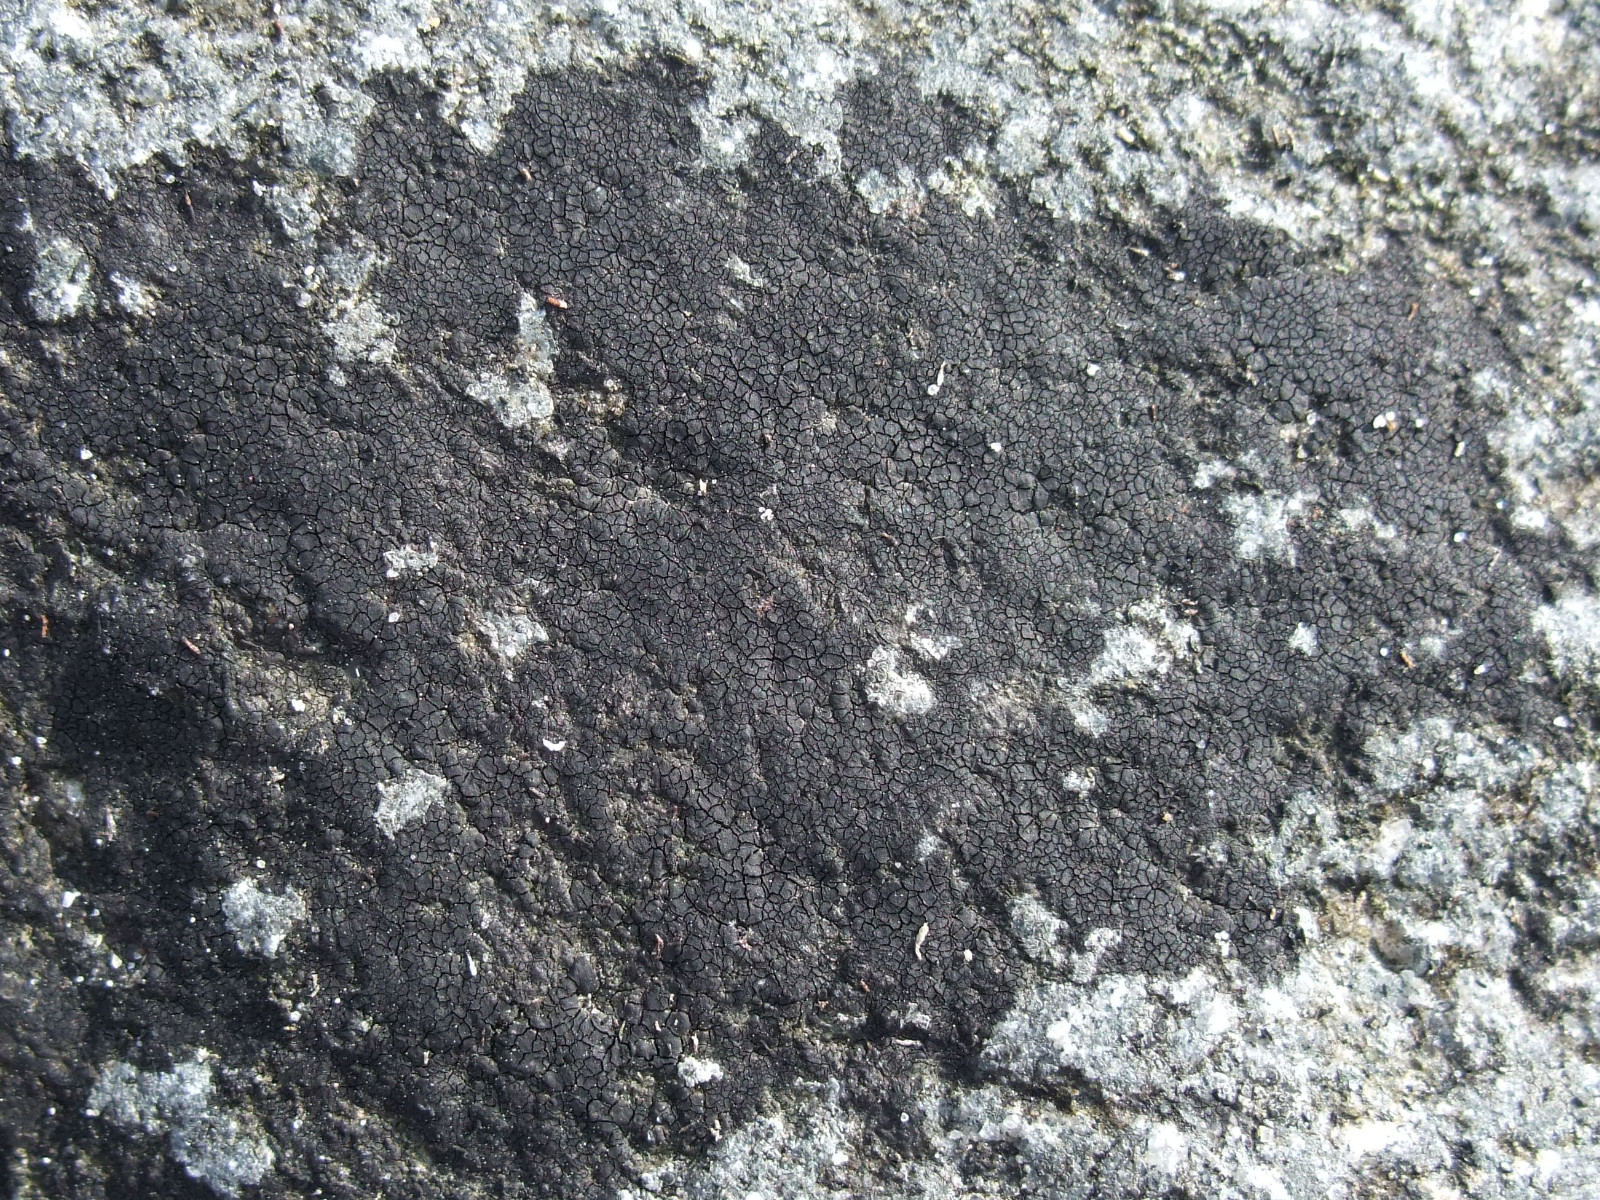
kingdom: Fungi
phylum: Ascomycota
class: Eurotiomycetes
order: Verrucariales
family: Verrucariaceae
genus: Hydropunctaria
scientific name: Hydropunctaria maura
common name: strand-vortelav
